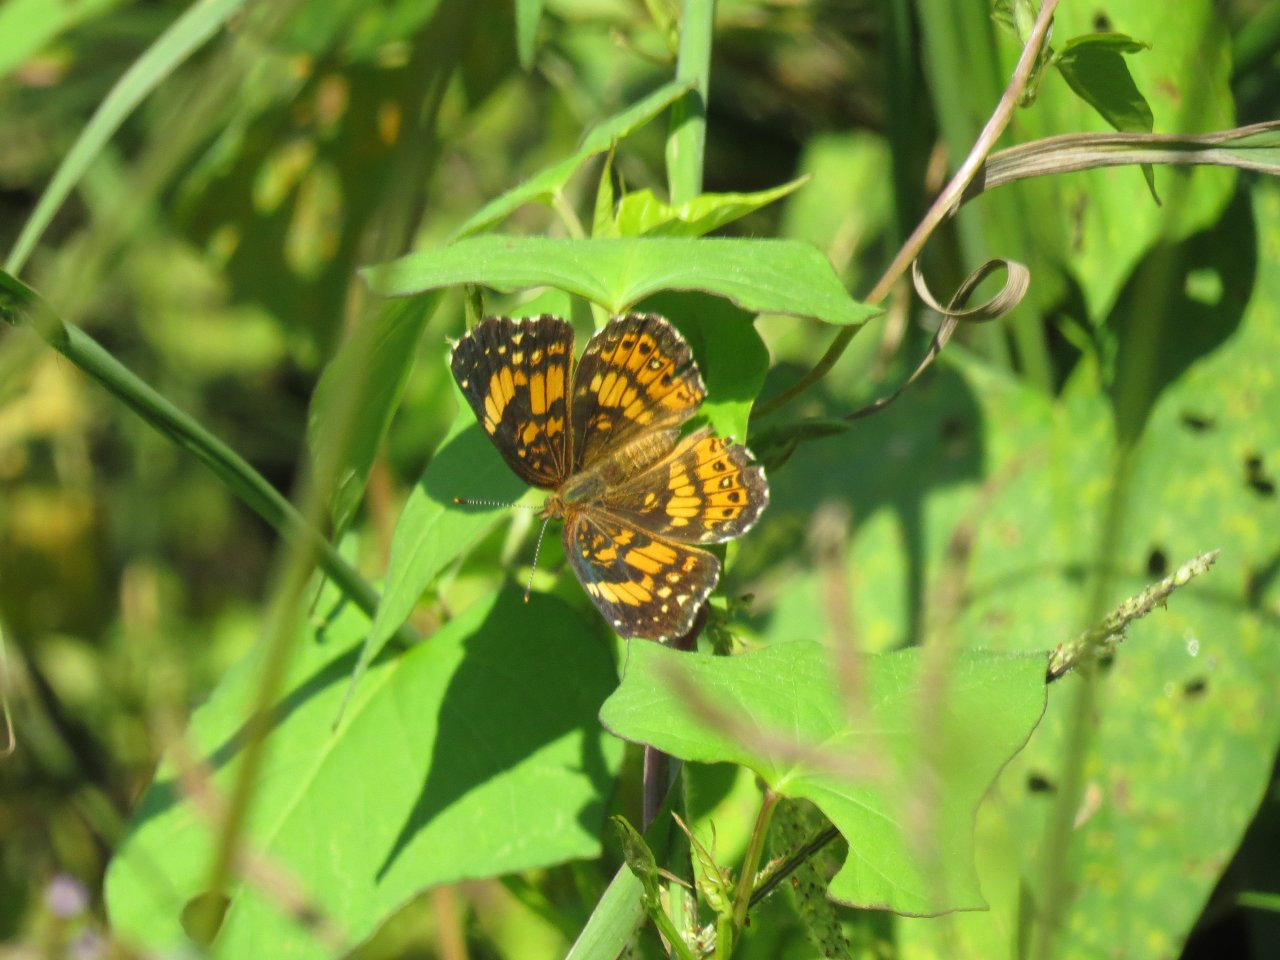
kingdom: Animalia
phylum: Arthropoda
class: Insecta
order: Lepidoptera
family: Nymphalidae
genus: Chlosyne
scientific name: Chlosyne nycteis
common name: Silvery Checkerspot
